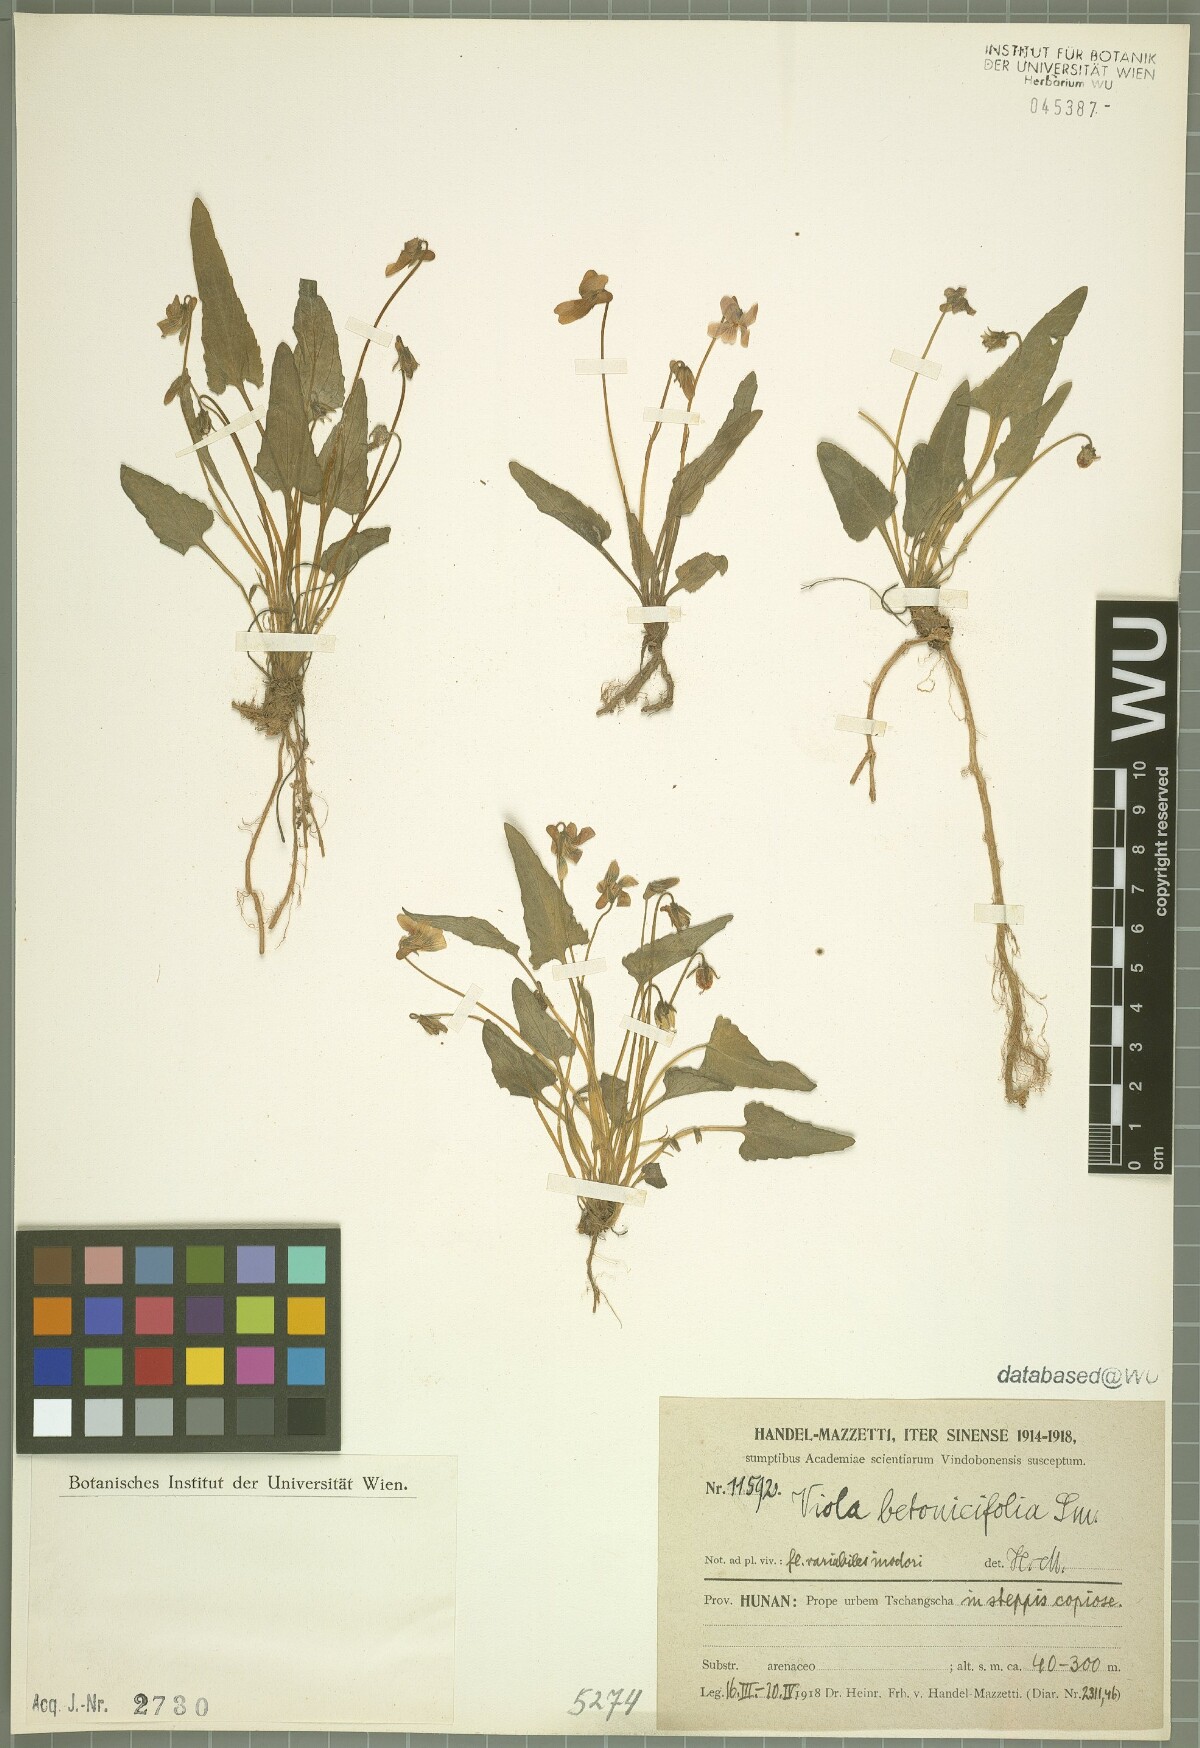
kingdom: Plantae
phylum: Tracheophyta
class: Magnoliopsida
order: Malpighiales
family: Violaceae
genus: Viola
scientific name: Viola betonicifolia
